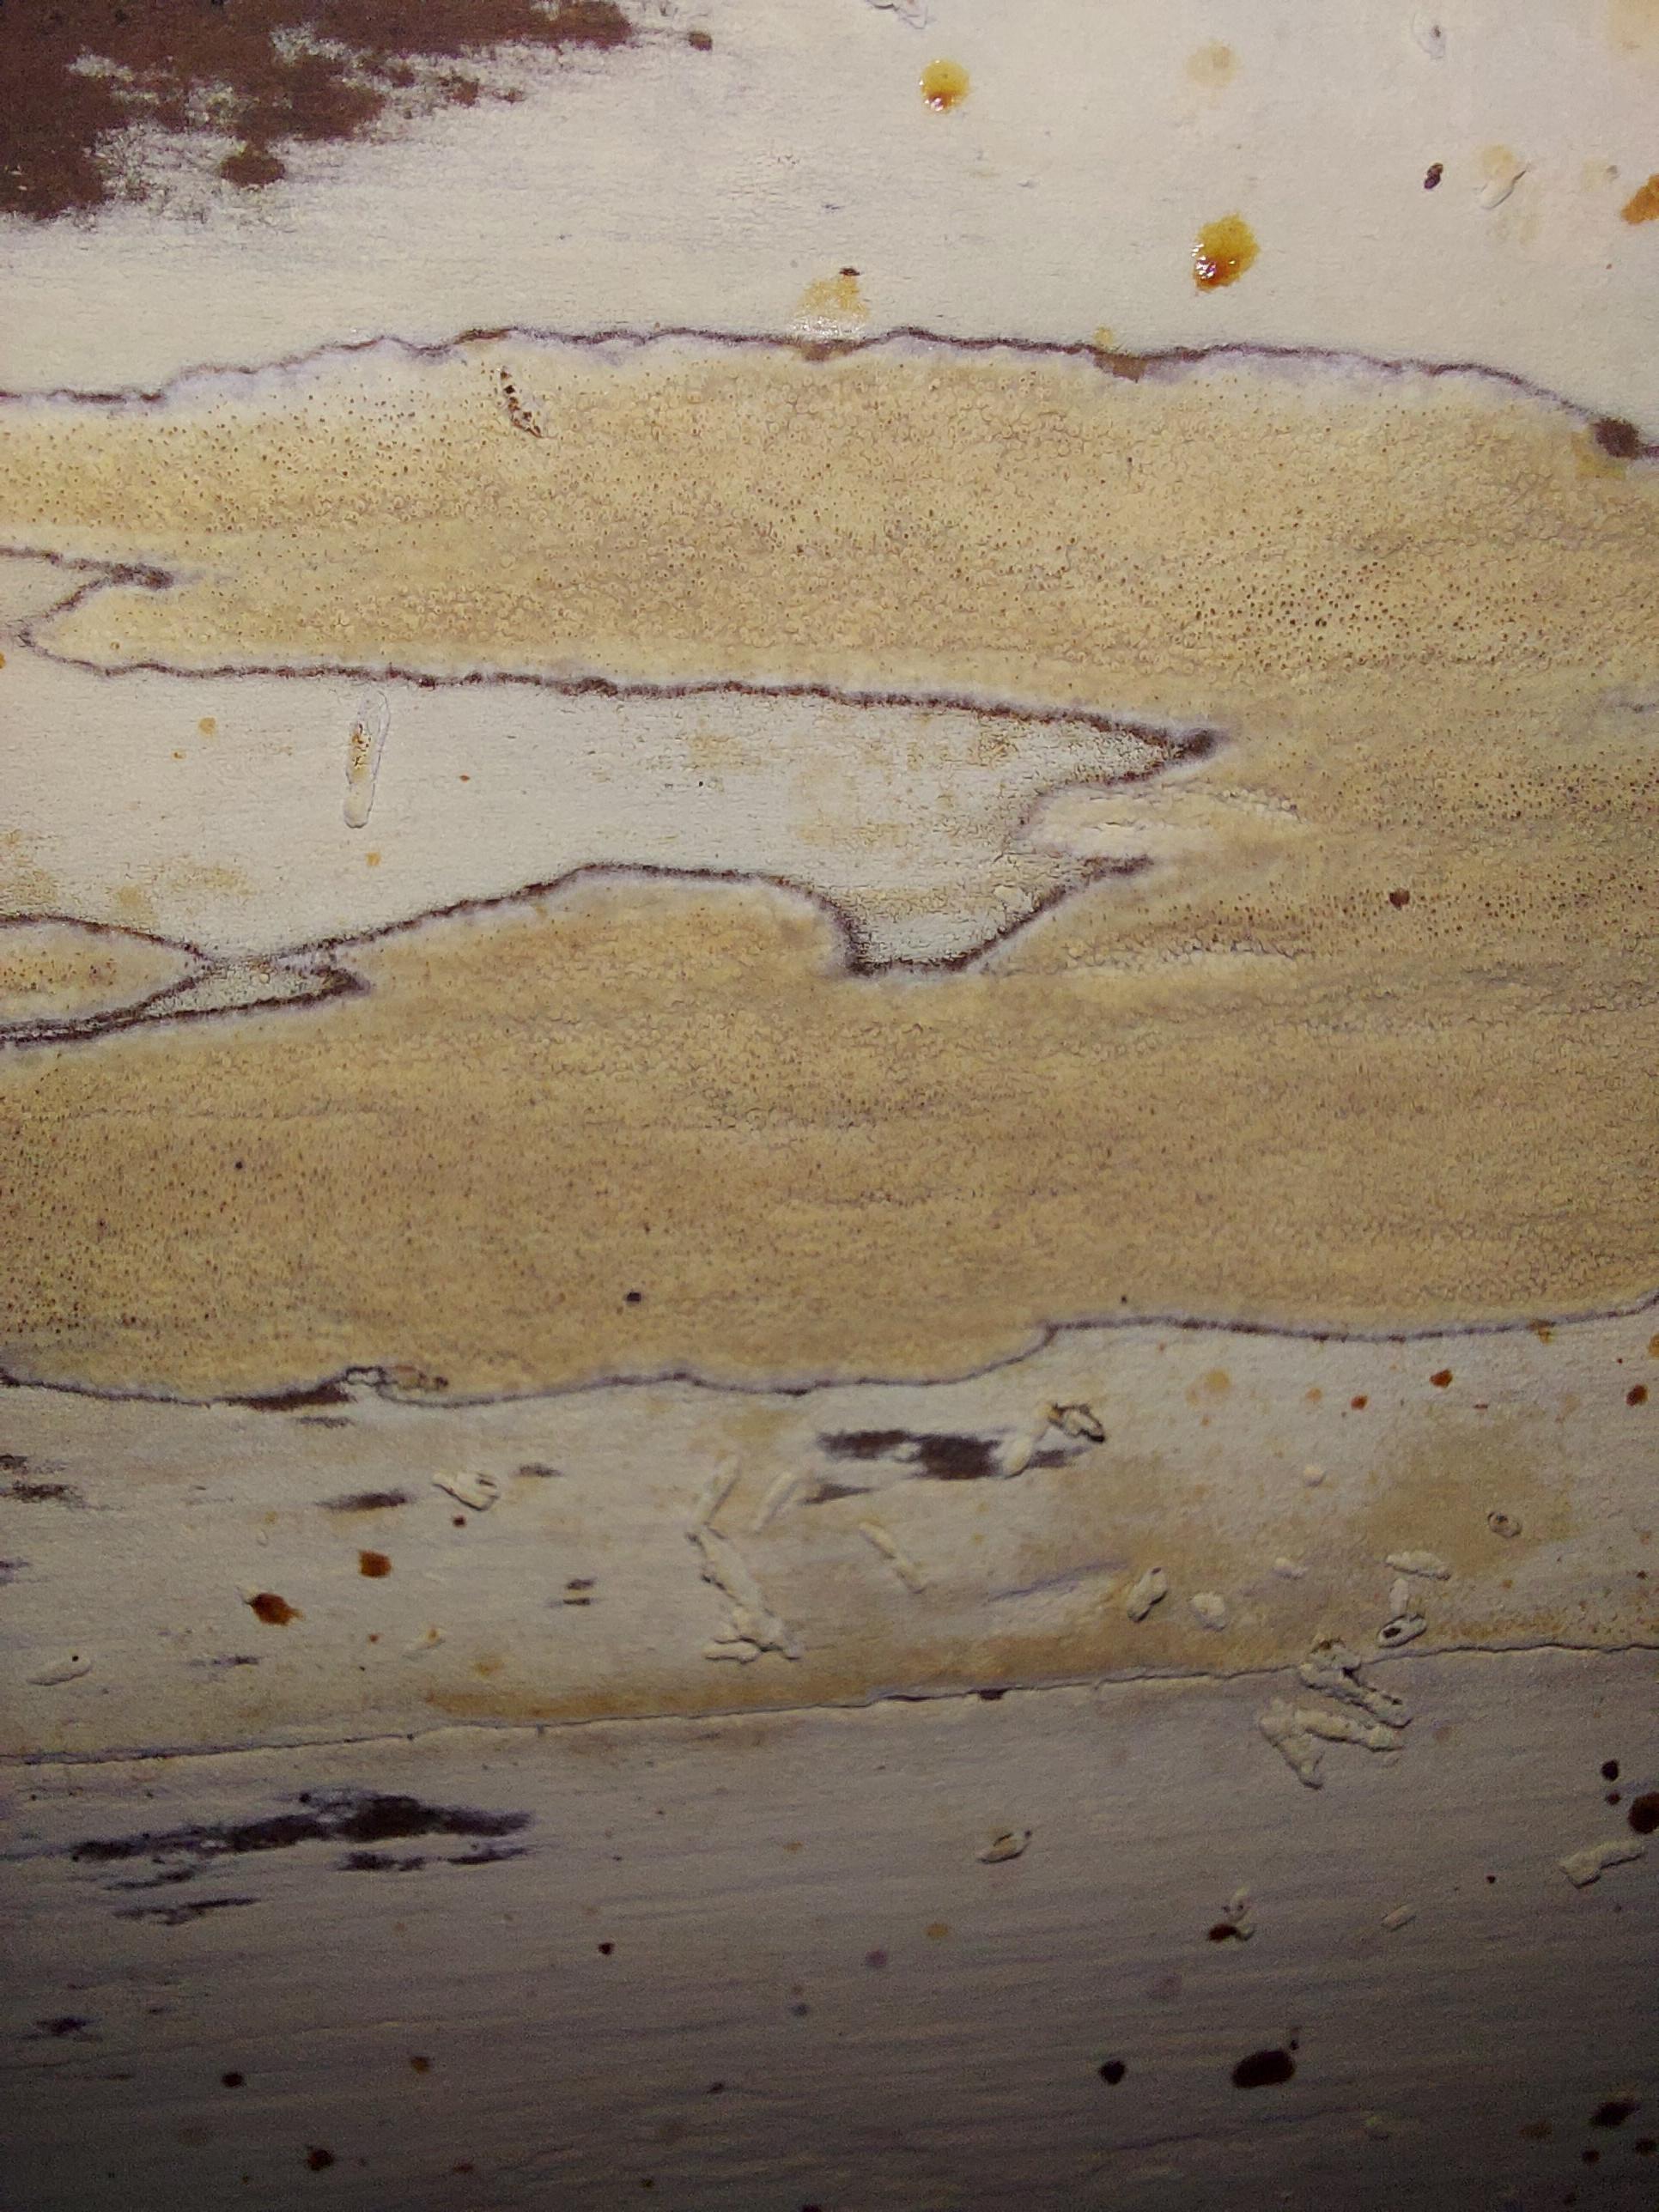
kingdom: Fungi
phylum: Basidiomycota
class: Agaricomycetes
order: Corticiales
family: Corticiaceae
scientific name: Corticiaceae
